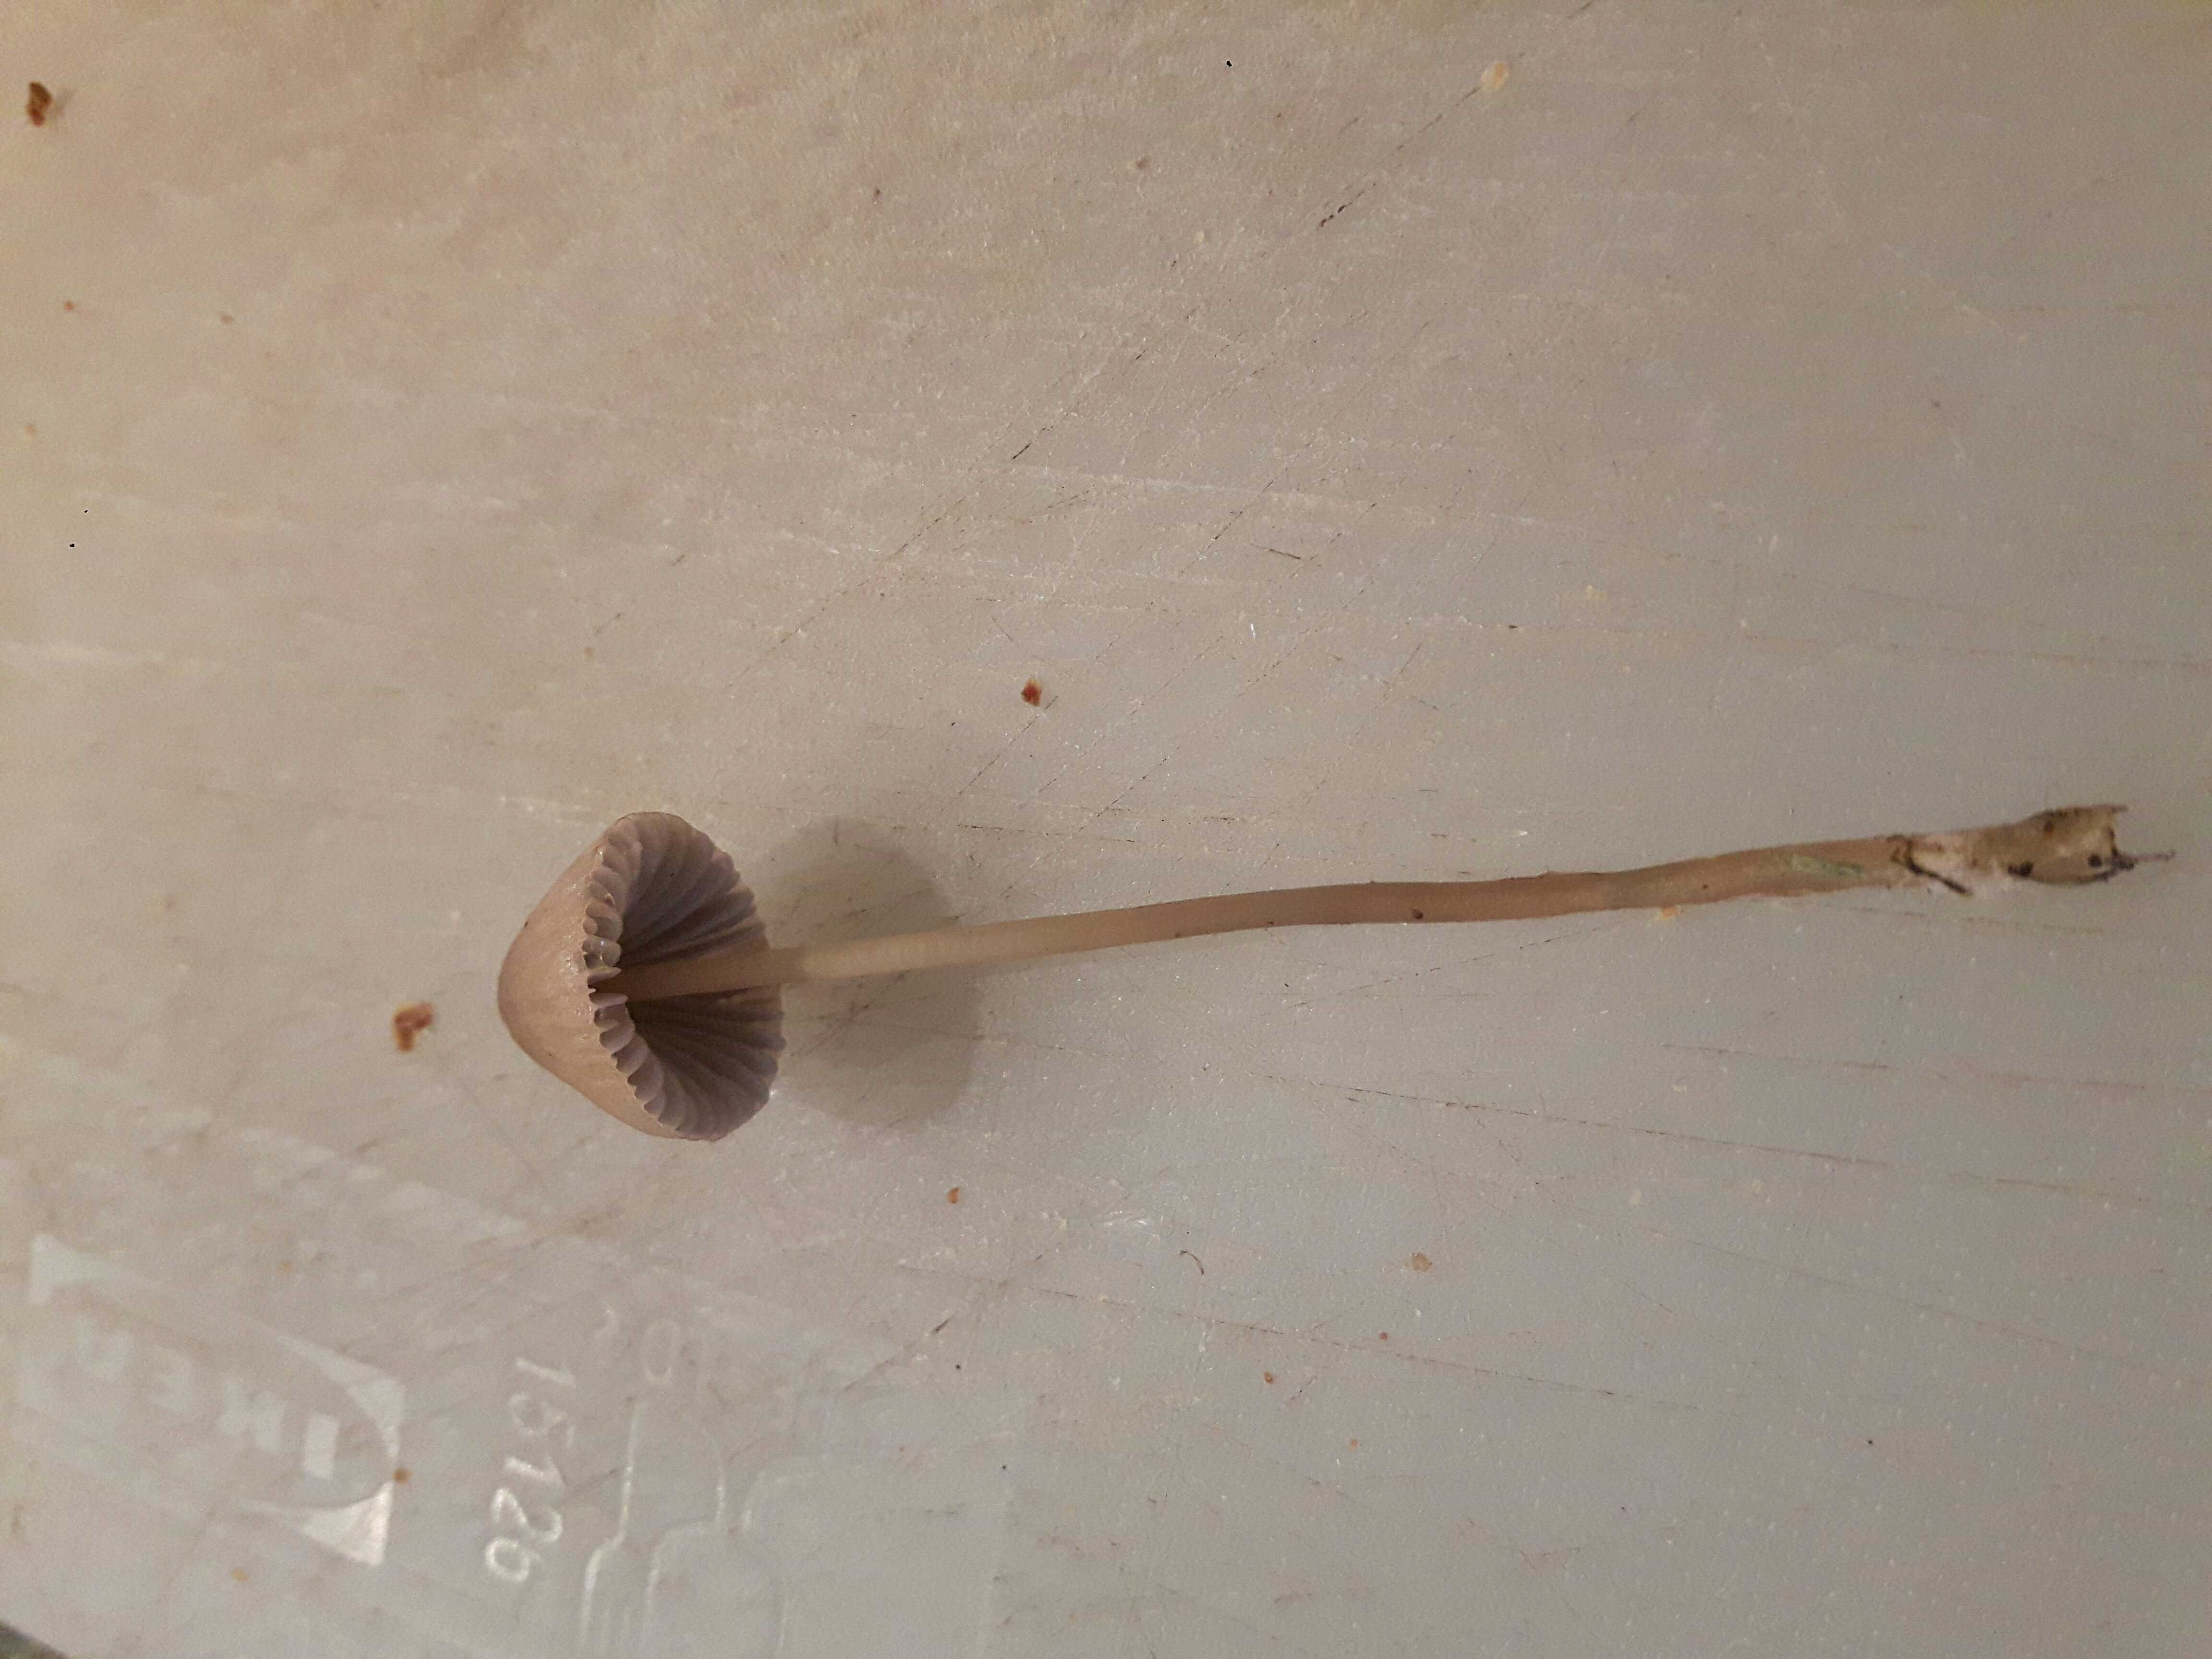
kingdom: Fungi
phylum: Basidiomycota
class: Agaricomycetes
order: Agaricales
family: Mycenaceae
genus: Mycena
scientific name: Mycena
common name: huesvamp
